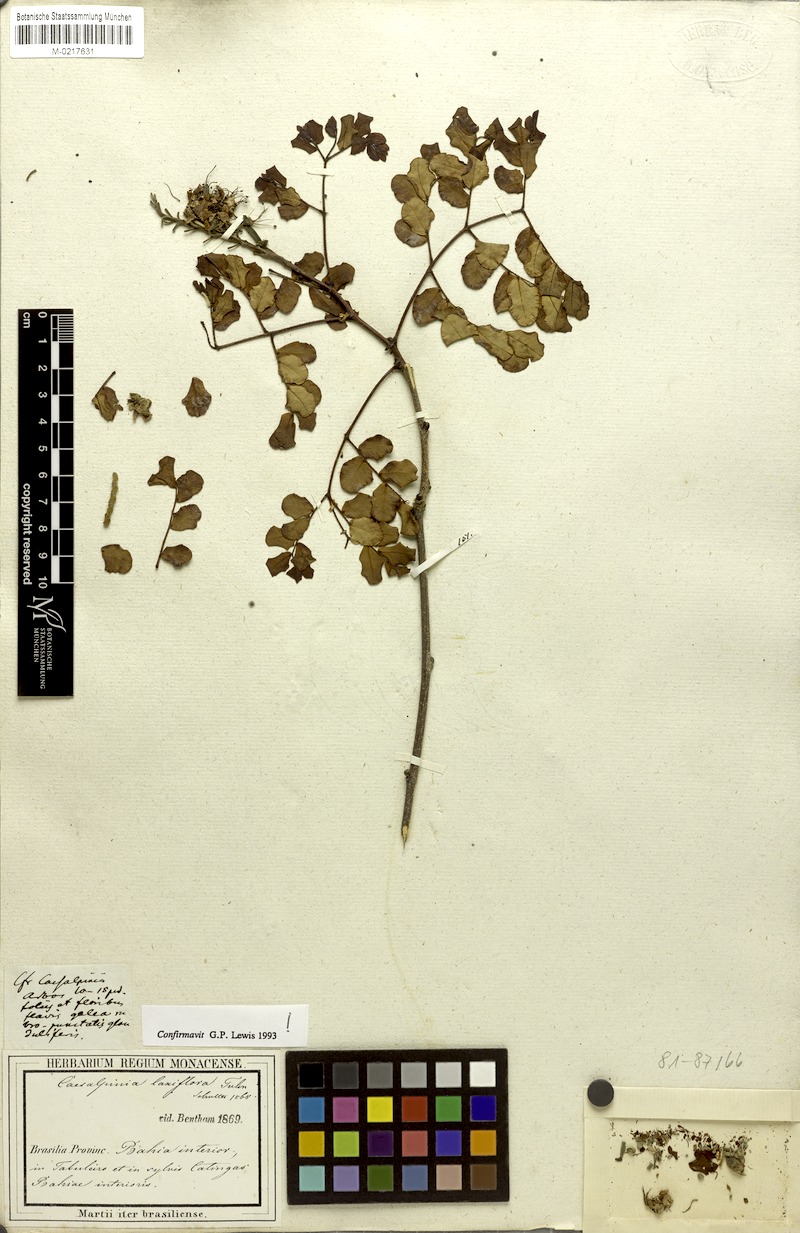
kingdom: Plantae
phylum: Tracheophyta
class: Magnoliopsida
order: Fabales
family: Fabaceae
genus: Cenostigma
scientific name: Cenostigma laxiflorum
